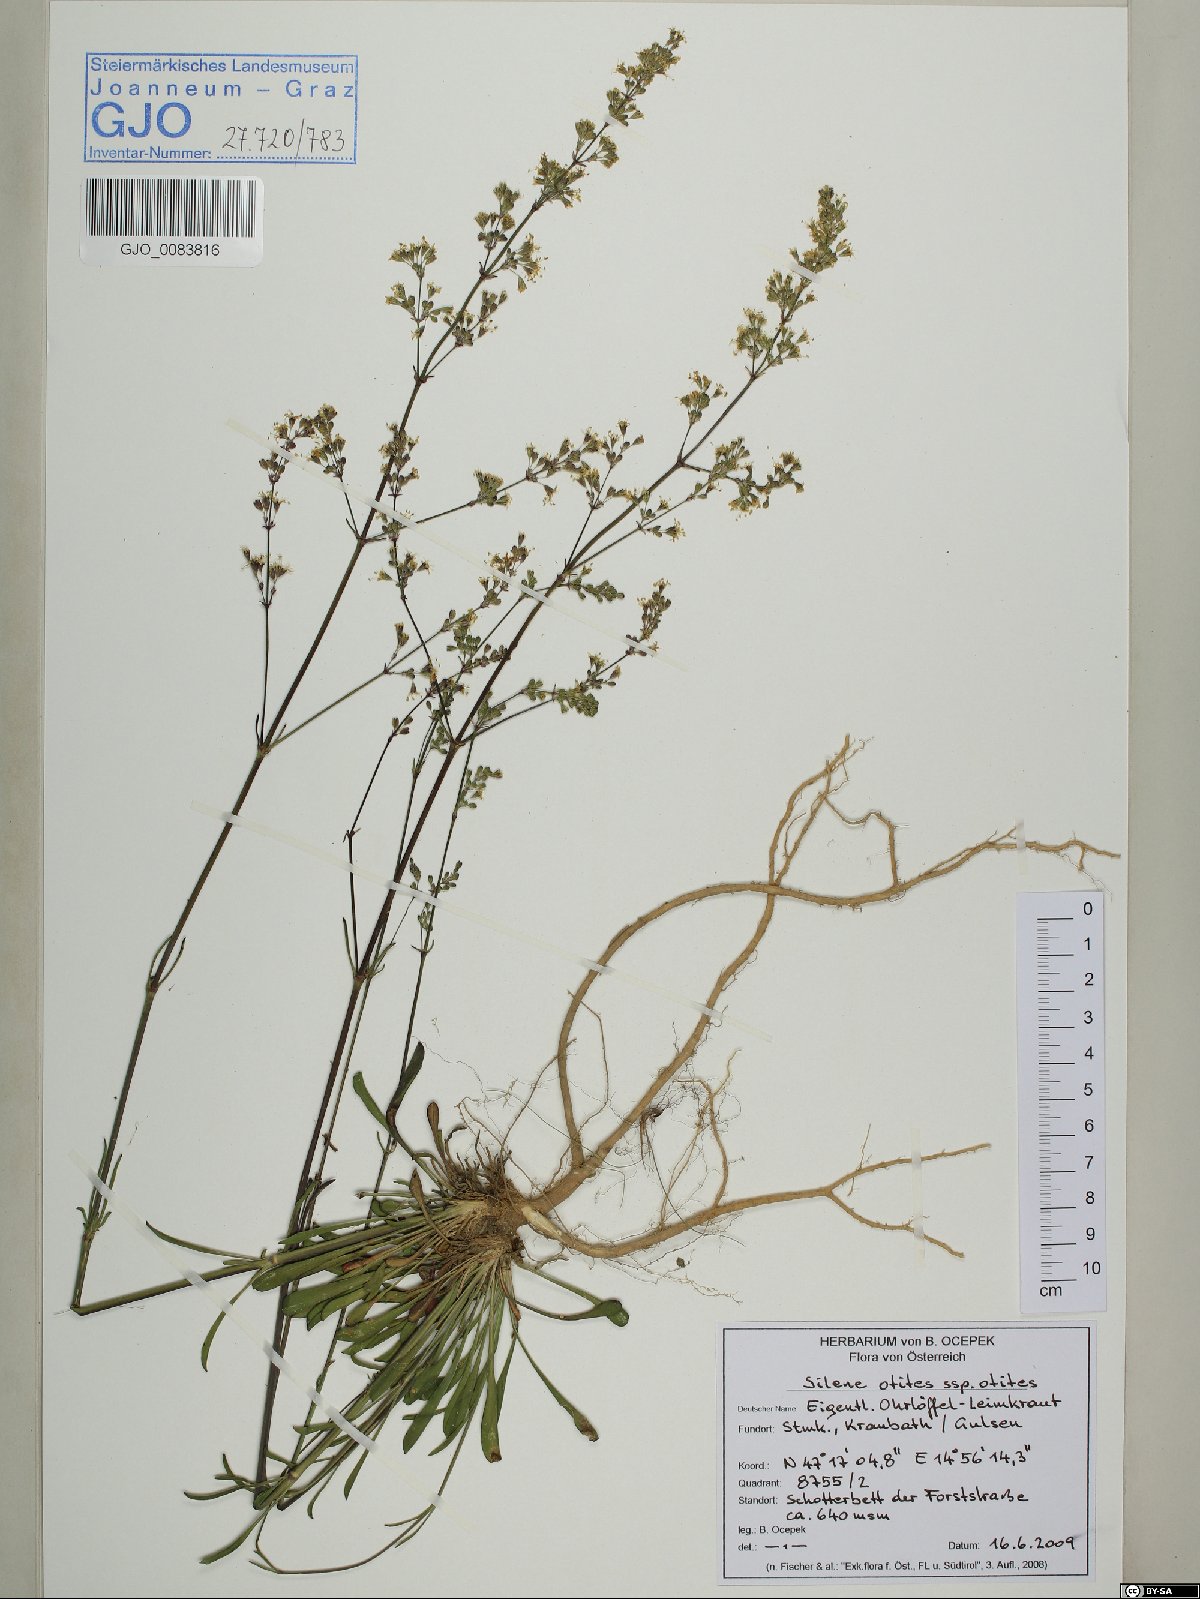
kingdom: Plantae
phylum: Tracheophyta
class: Magnoliopsida
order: Caryophyllales
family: Caryophyllaceae
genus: Silene
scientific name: Silene otites
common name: Spanish catchfly
